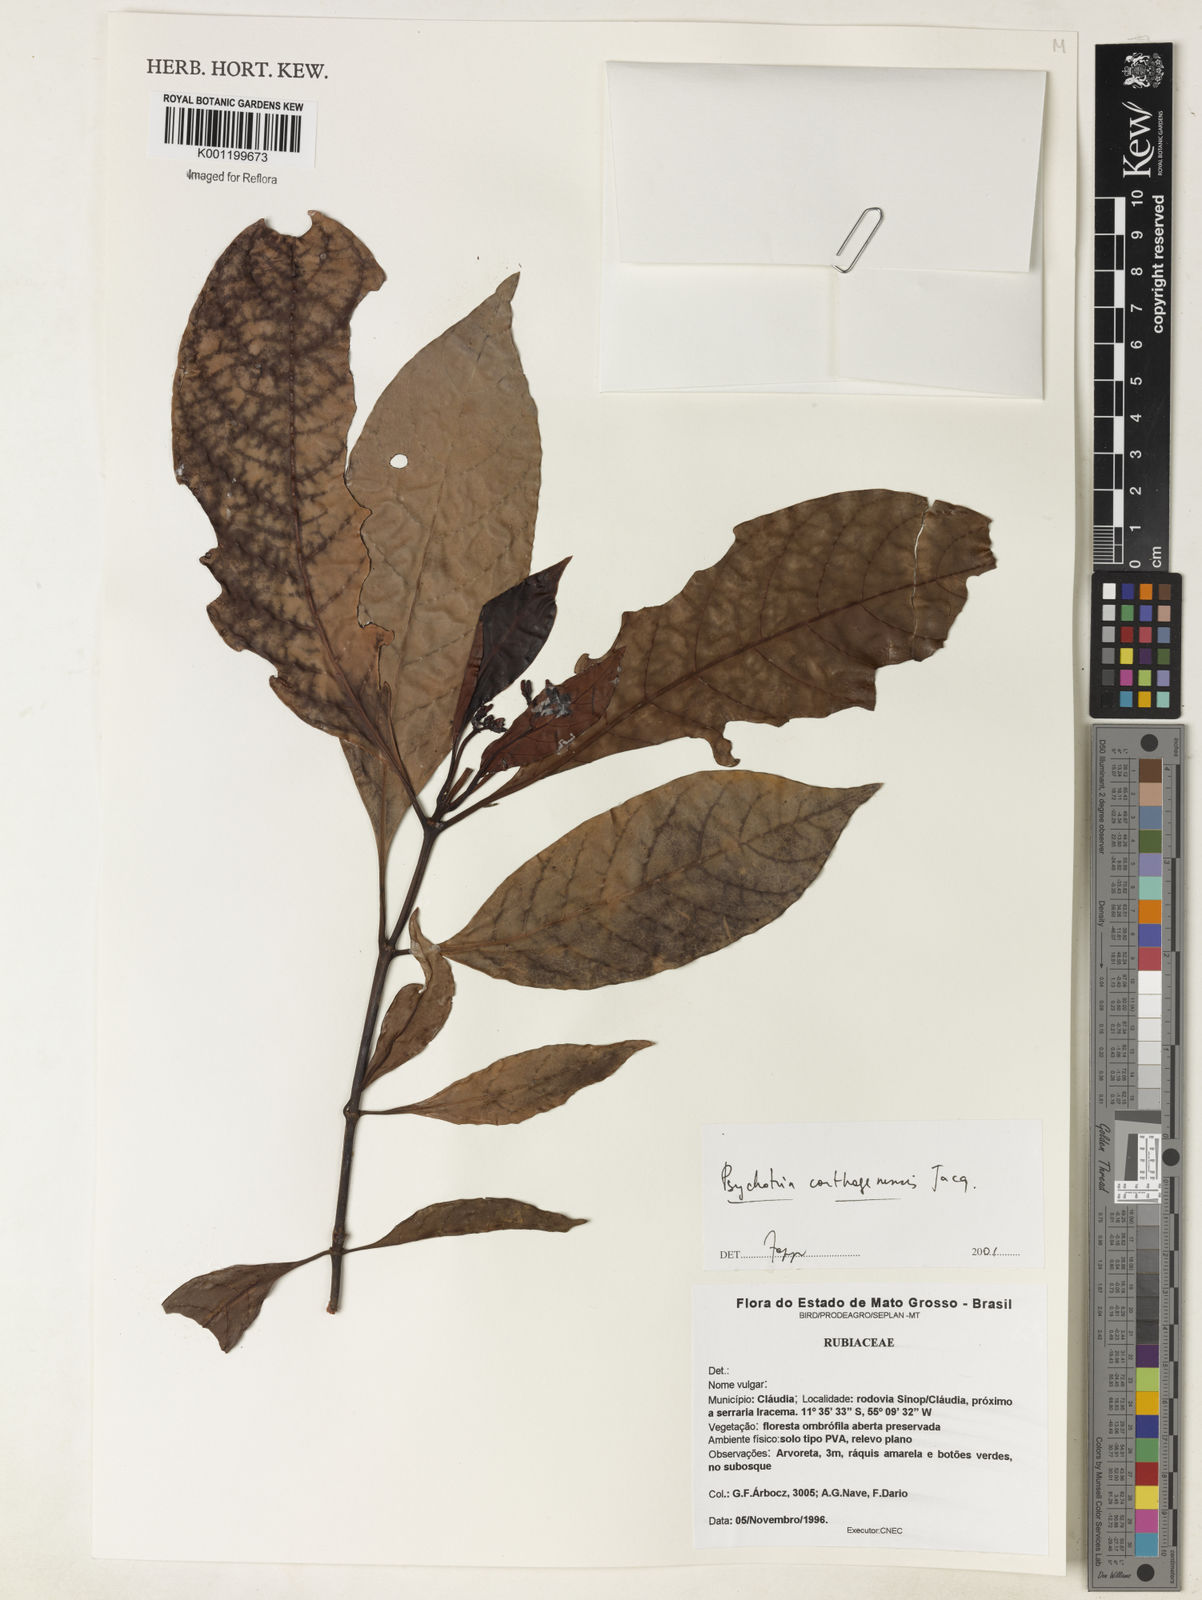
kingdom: Plantae
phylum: Tracheophyta
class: Magnoliopsida
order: Gentianales
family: Rubiaceae
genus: Psychotria
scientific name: Psychotria carthagenensis
